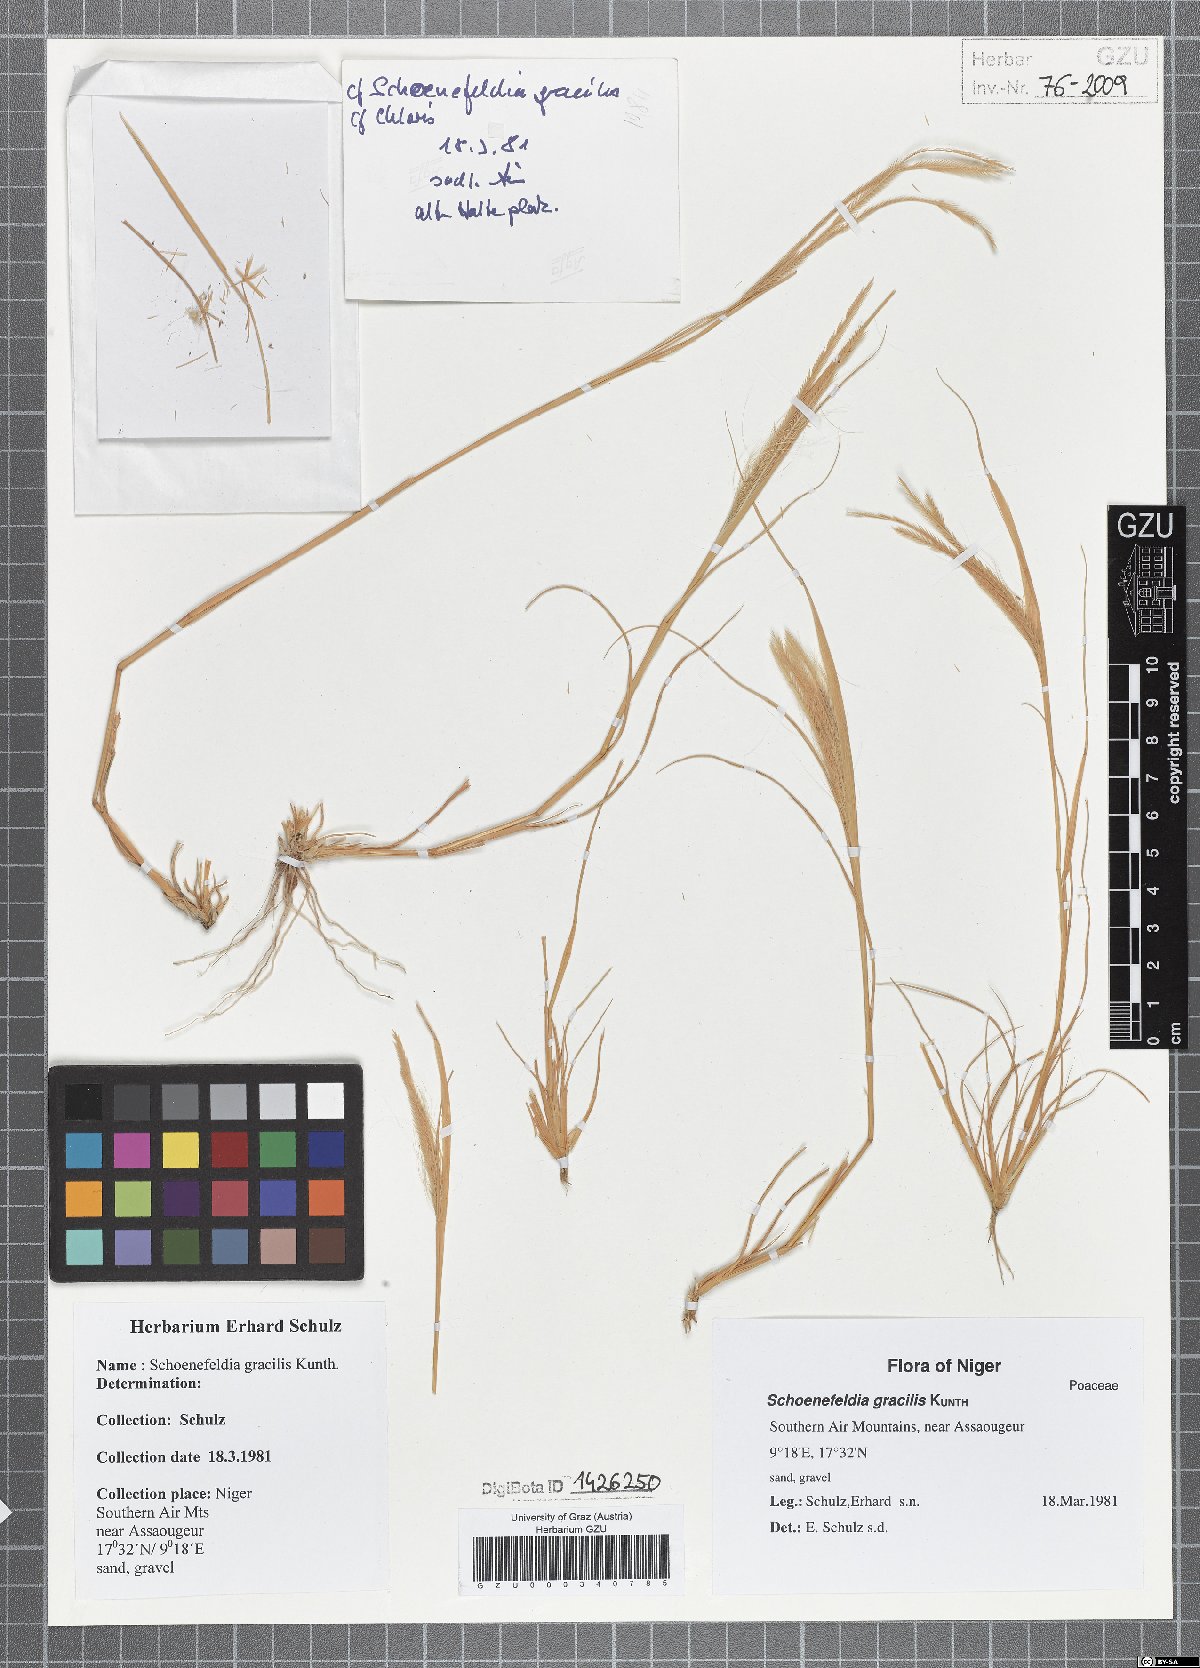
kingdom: Plantae
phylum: Tracheophyta
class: Liliopsida
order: Poales
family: Poaceae
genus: Schoenefeldia
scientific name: Schoenefeldia gracilis
